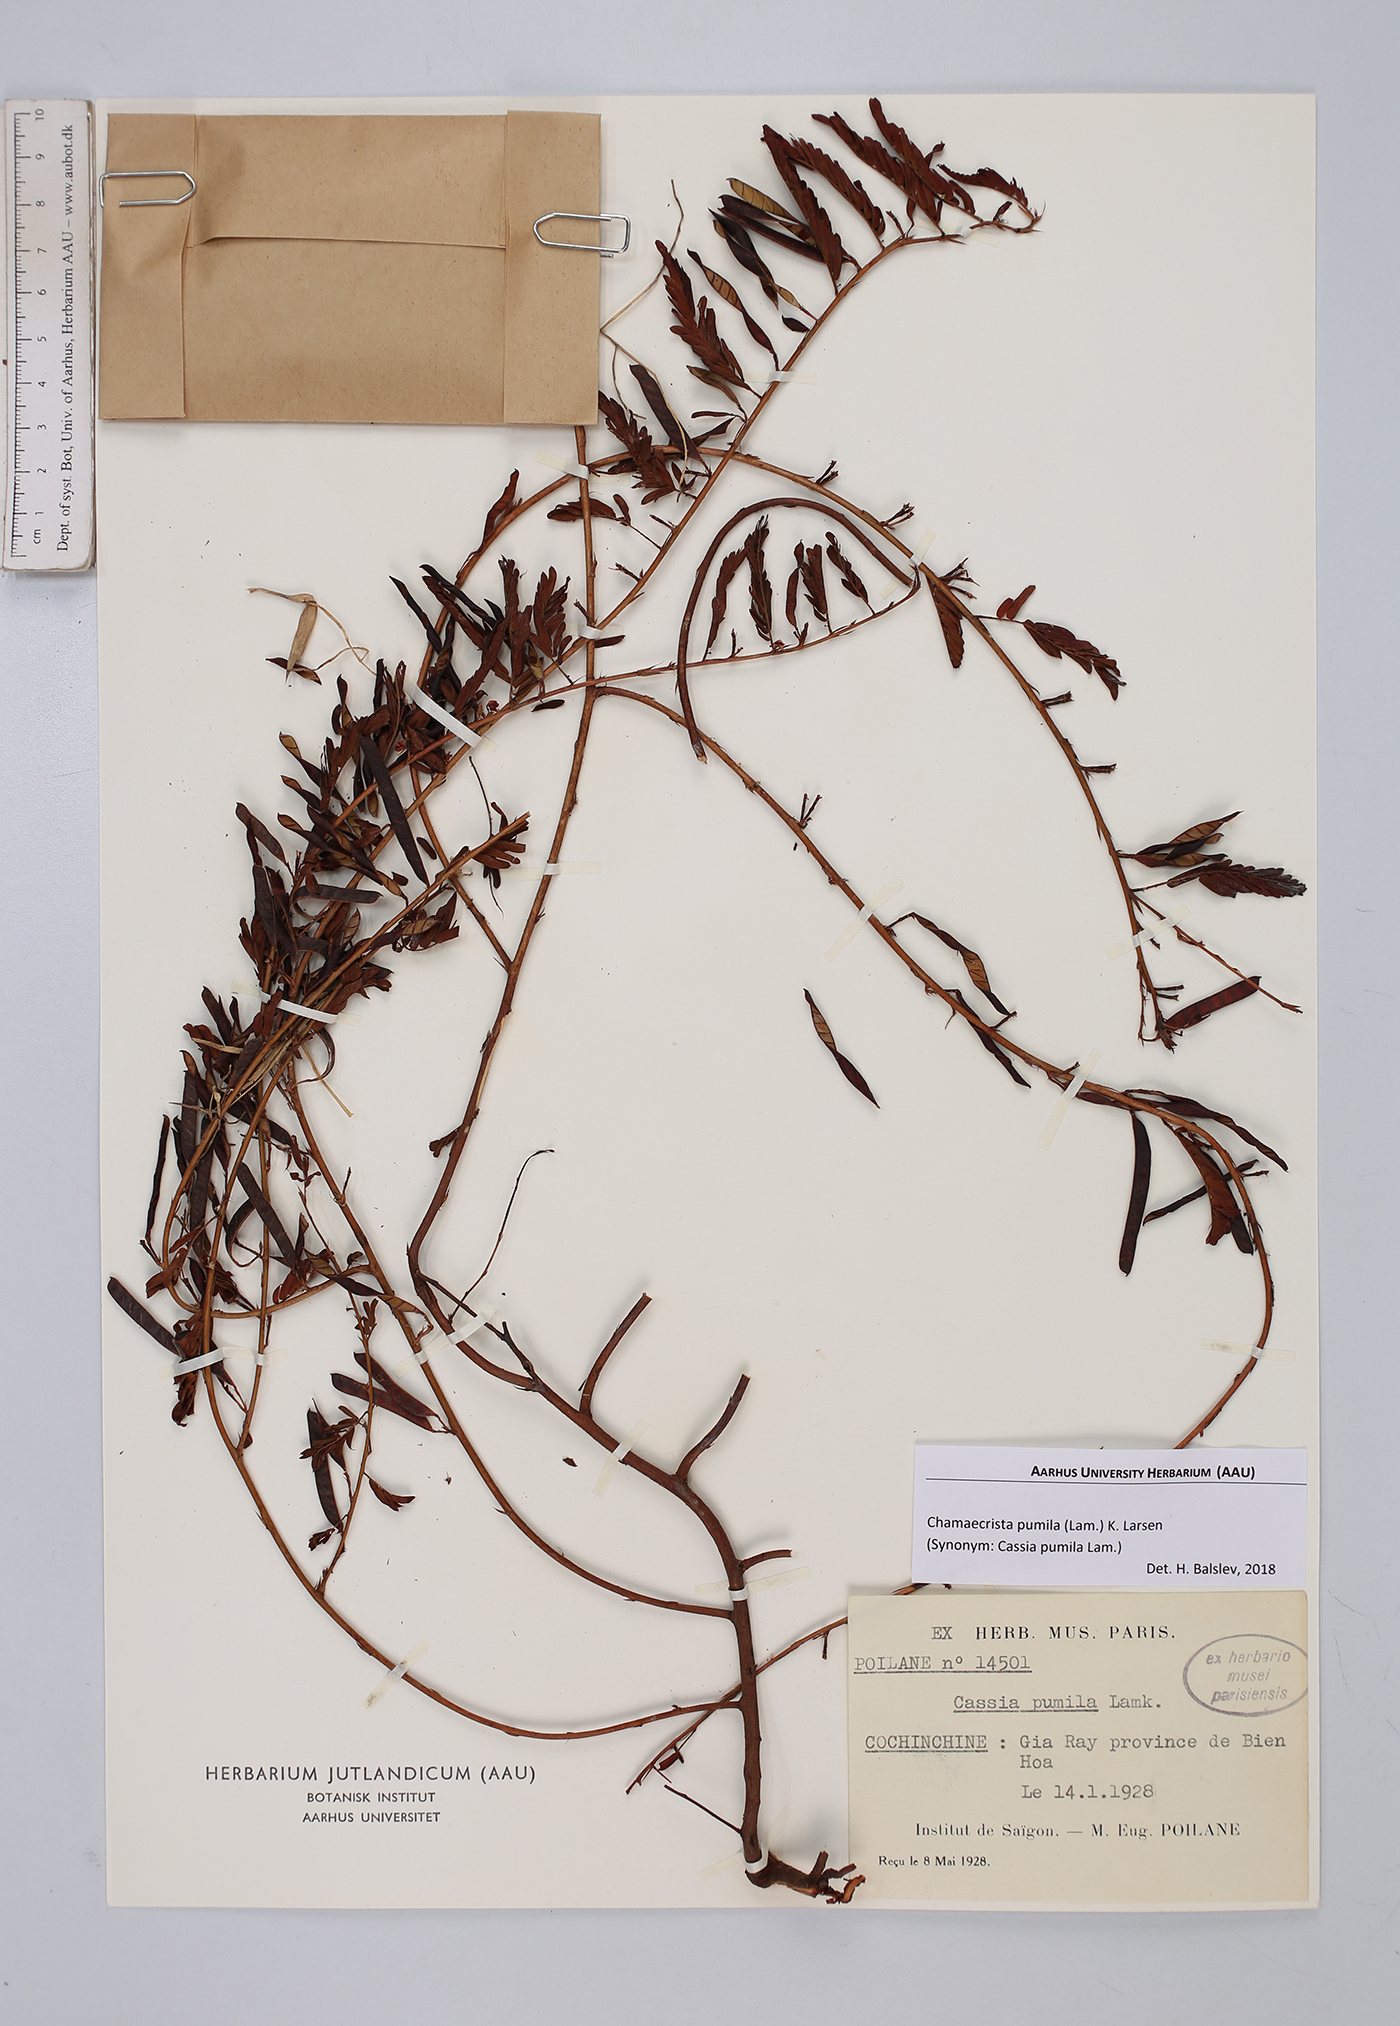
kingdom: Plantae
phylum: Tracheophyta
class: Magnoliopsida
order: Fabales
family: Fabaceae
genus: Chamaecrista
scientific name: Chamaecrista pumila
